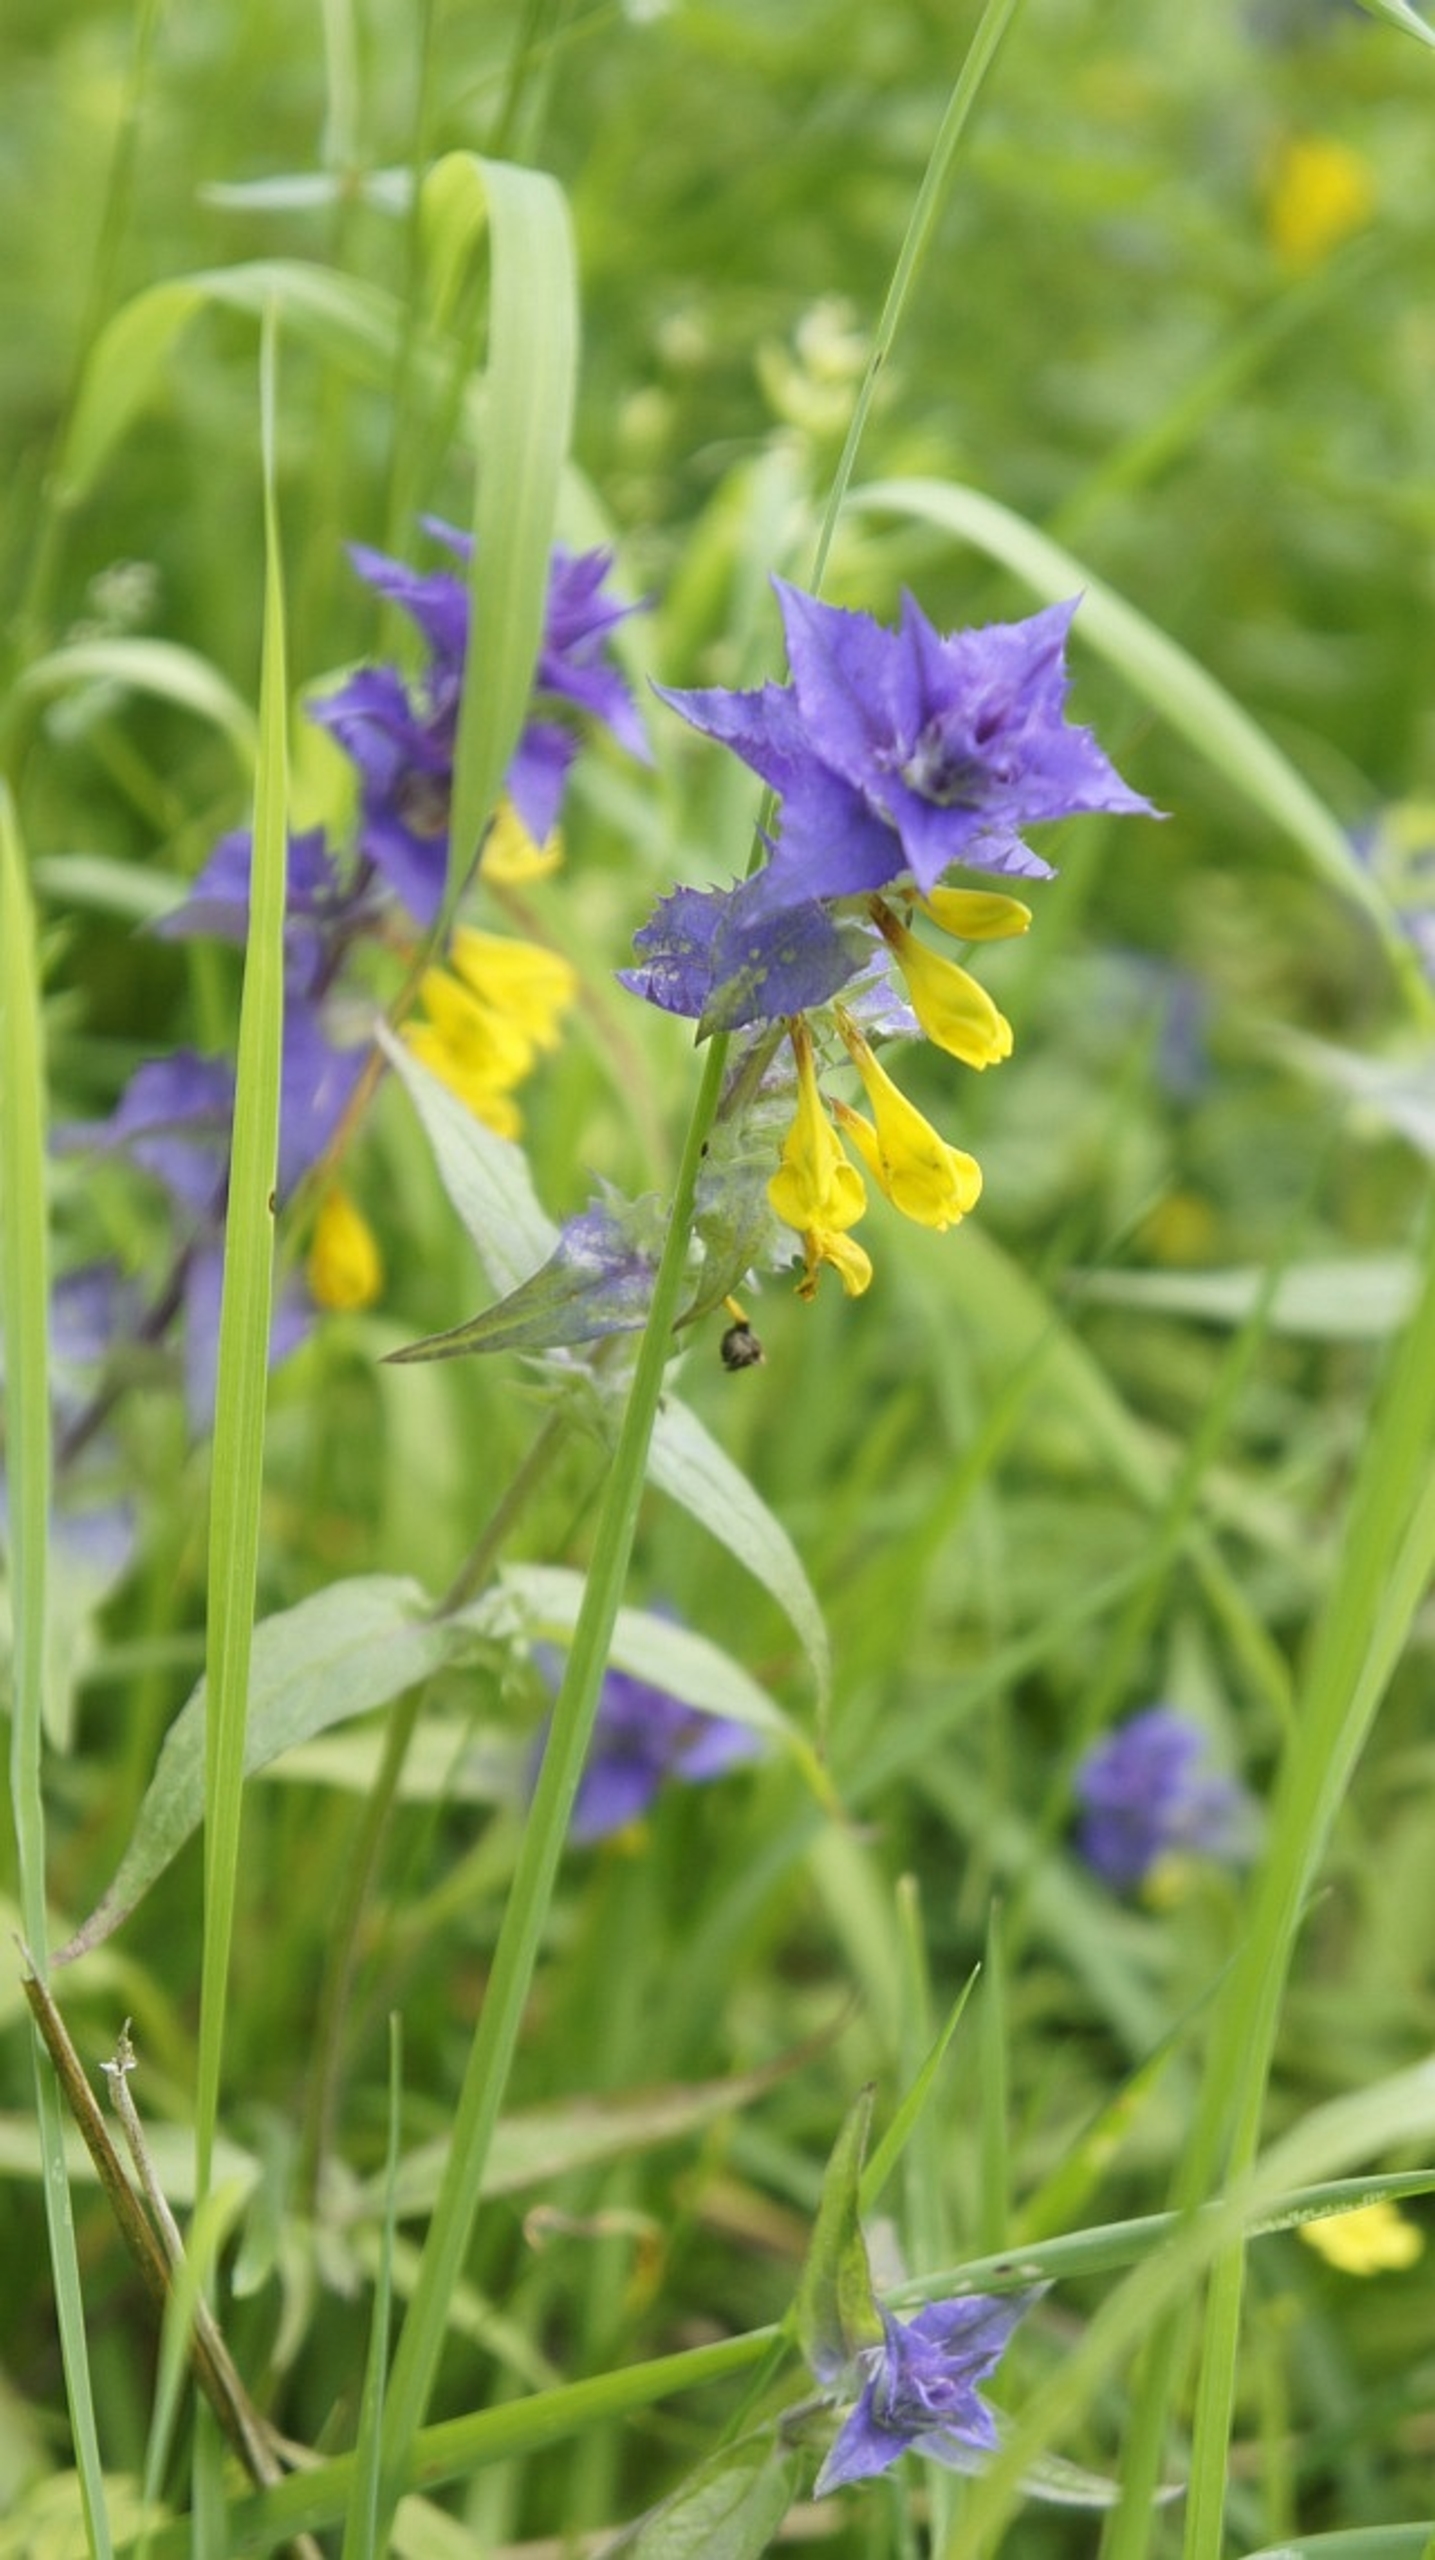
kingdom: Plantae
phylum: Tracheophyta
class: Magnoliopsida
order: Lamiales
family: Orobanchaceae
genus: Melampyrum
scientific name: Melampyrum nemorosum
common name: Blåtoppet kohvede
